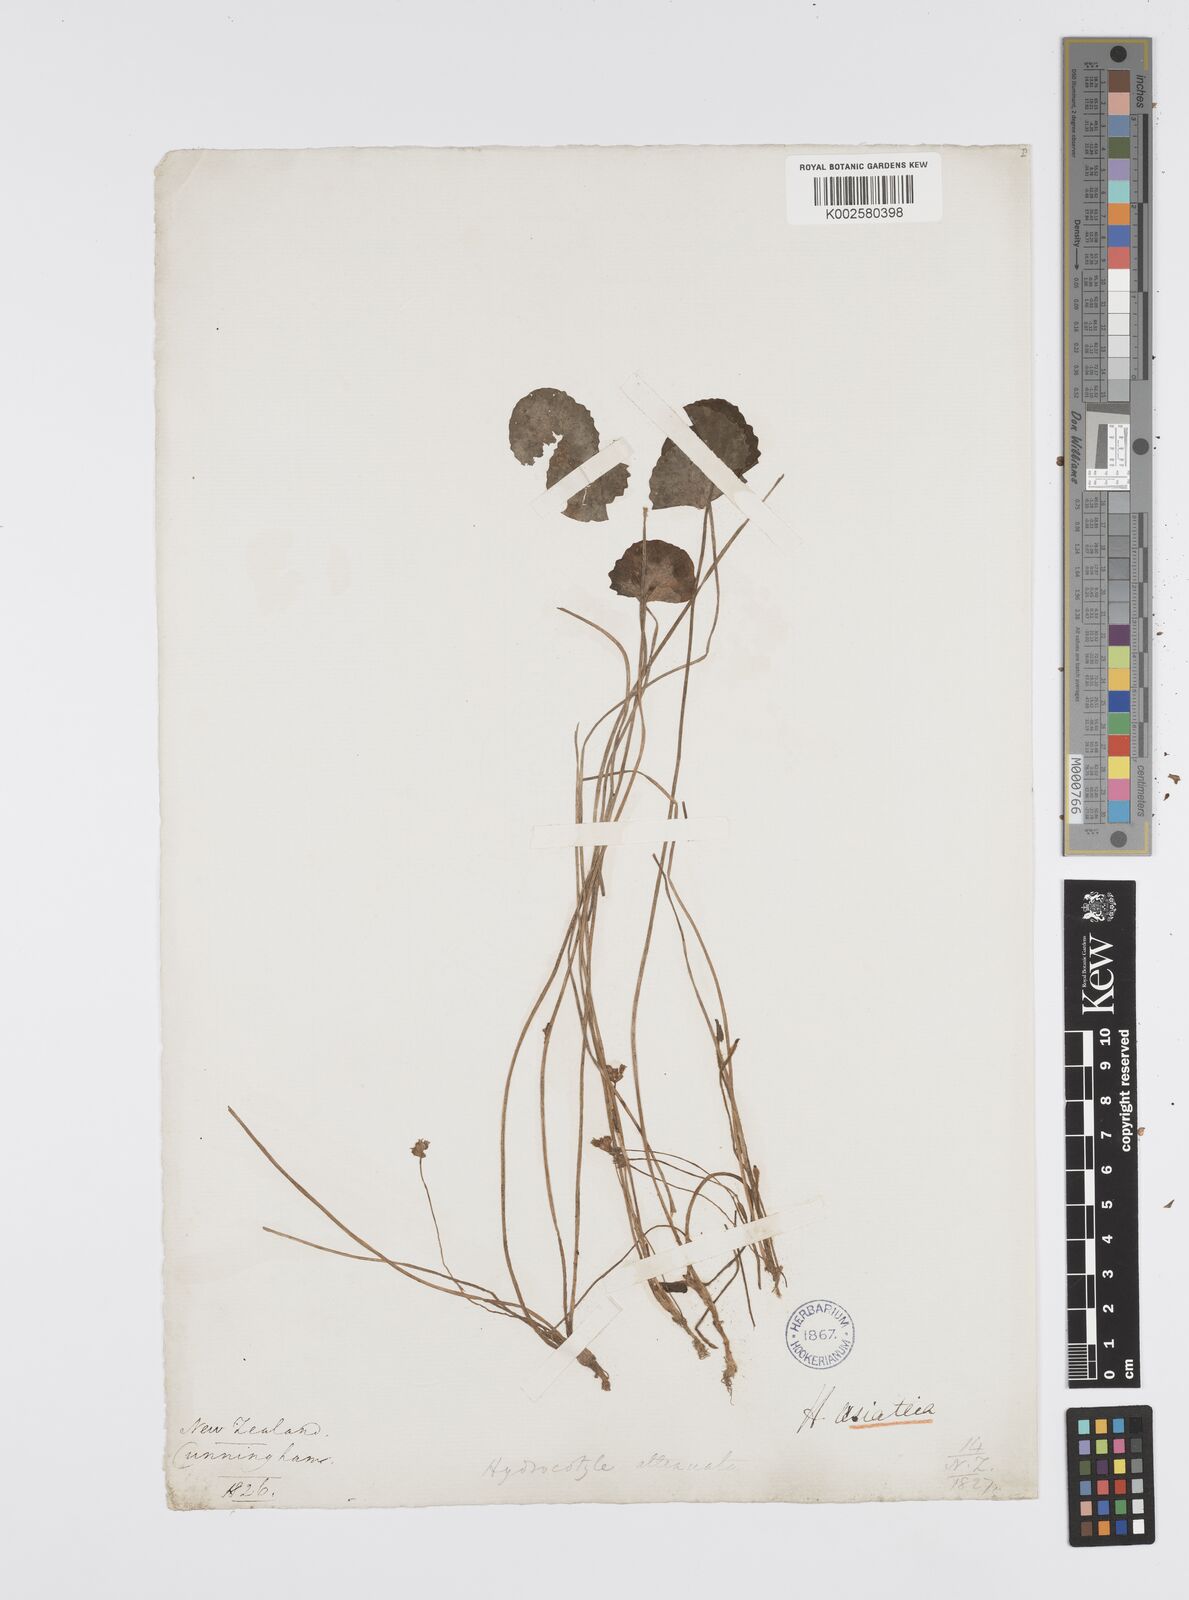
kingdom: Plantae
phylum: Tracheophyta
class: Magnoliopsida
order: Apiales
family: Apiaceae
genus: Centella
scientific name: Centella uniflora
